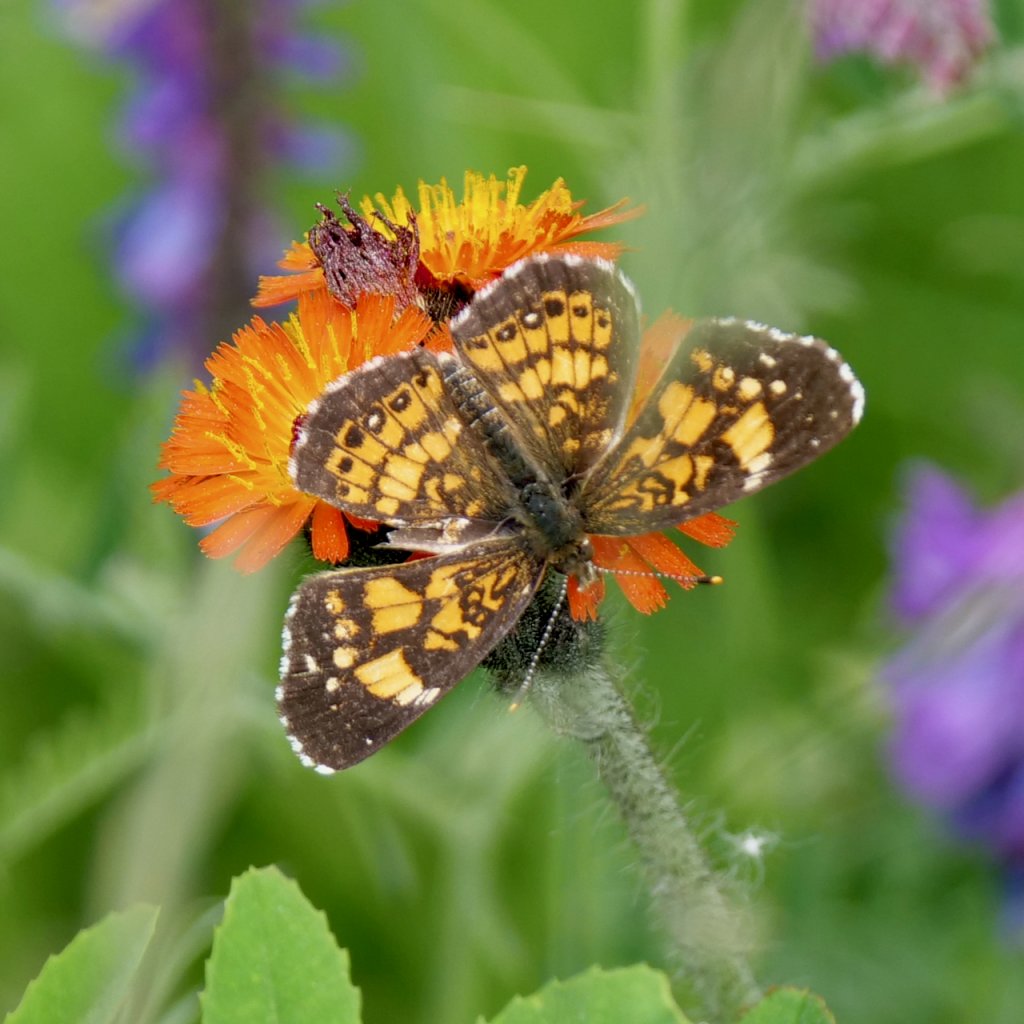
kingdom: Animalia
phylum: Arthropoda
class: Insecta
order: Lepidoptera
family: Nymphalidae
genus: Chlosyne
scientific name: Chlosyne nycteis
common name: Silvery Checkerspot
